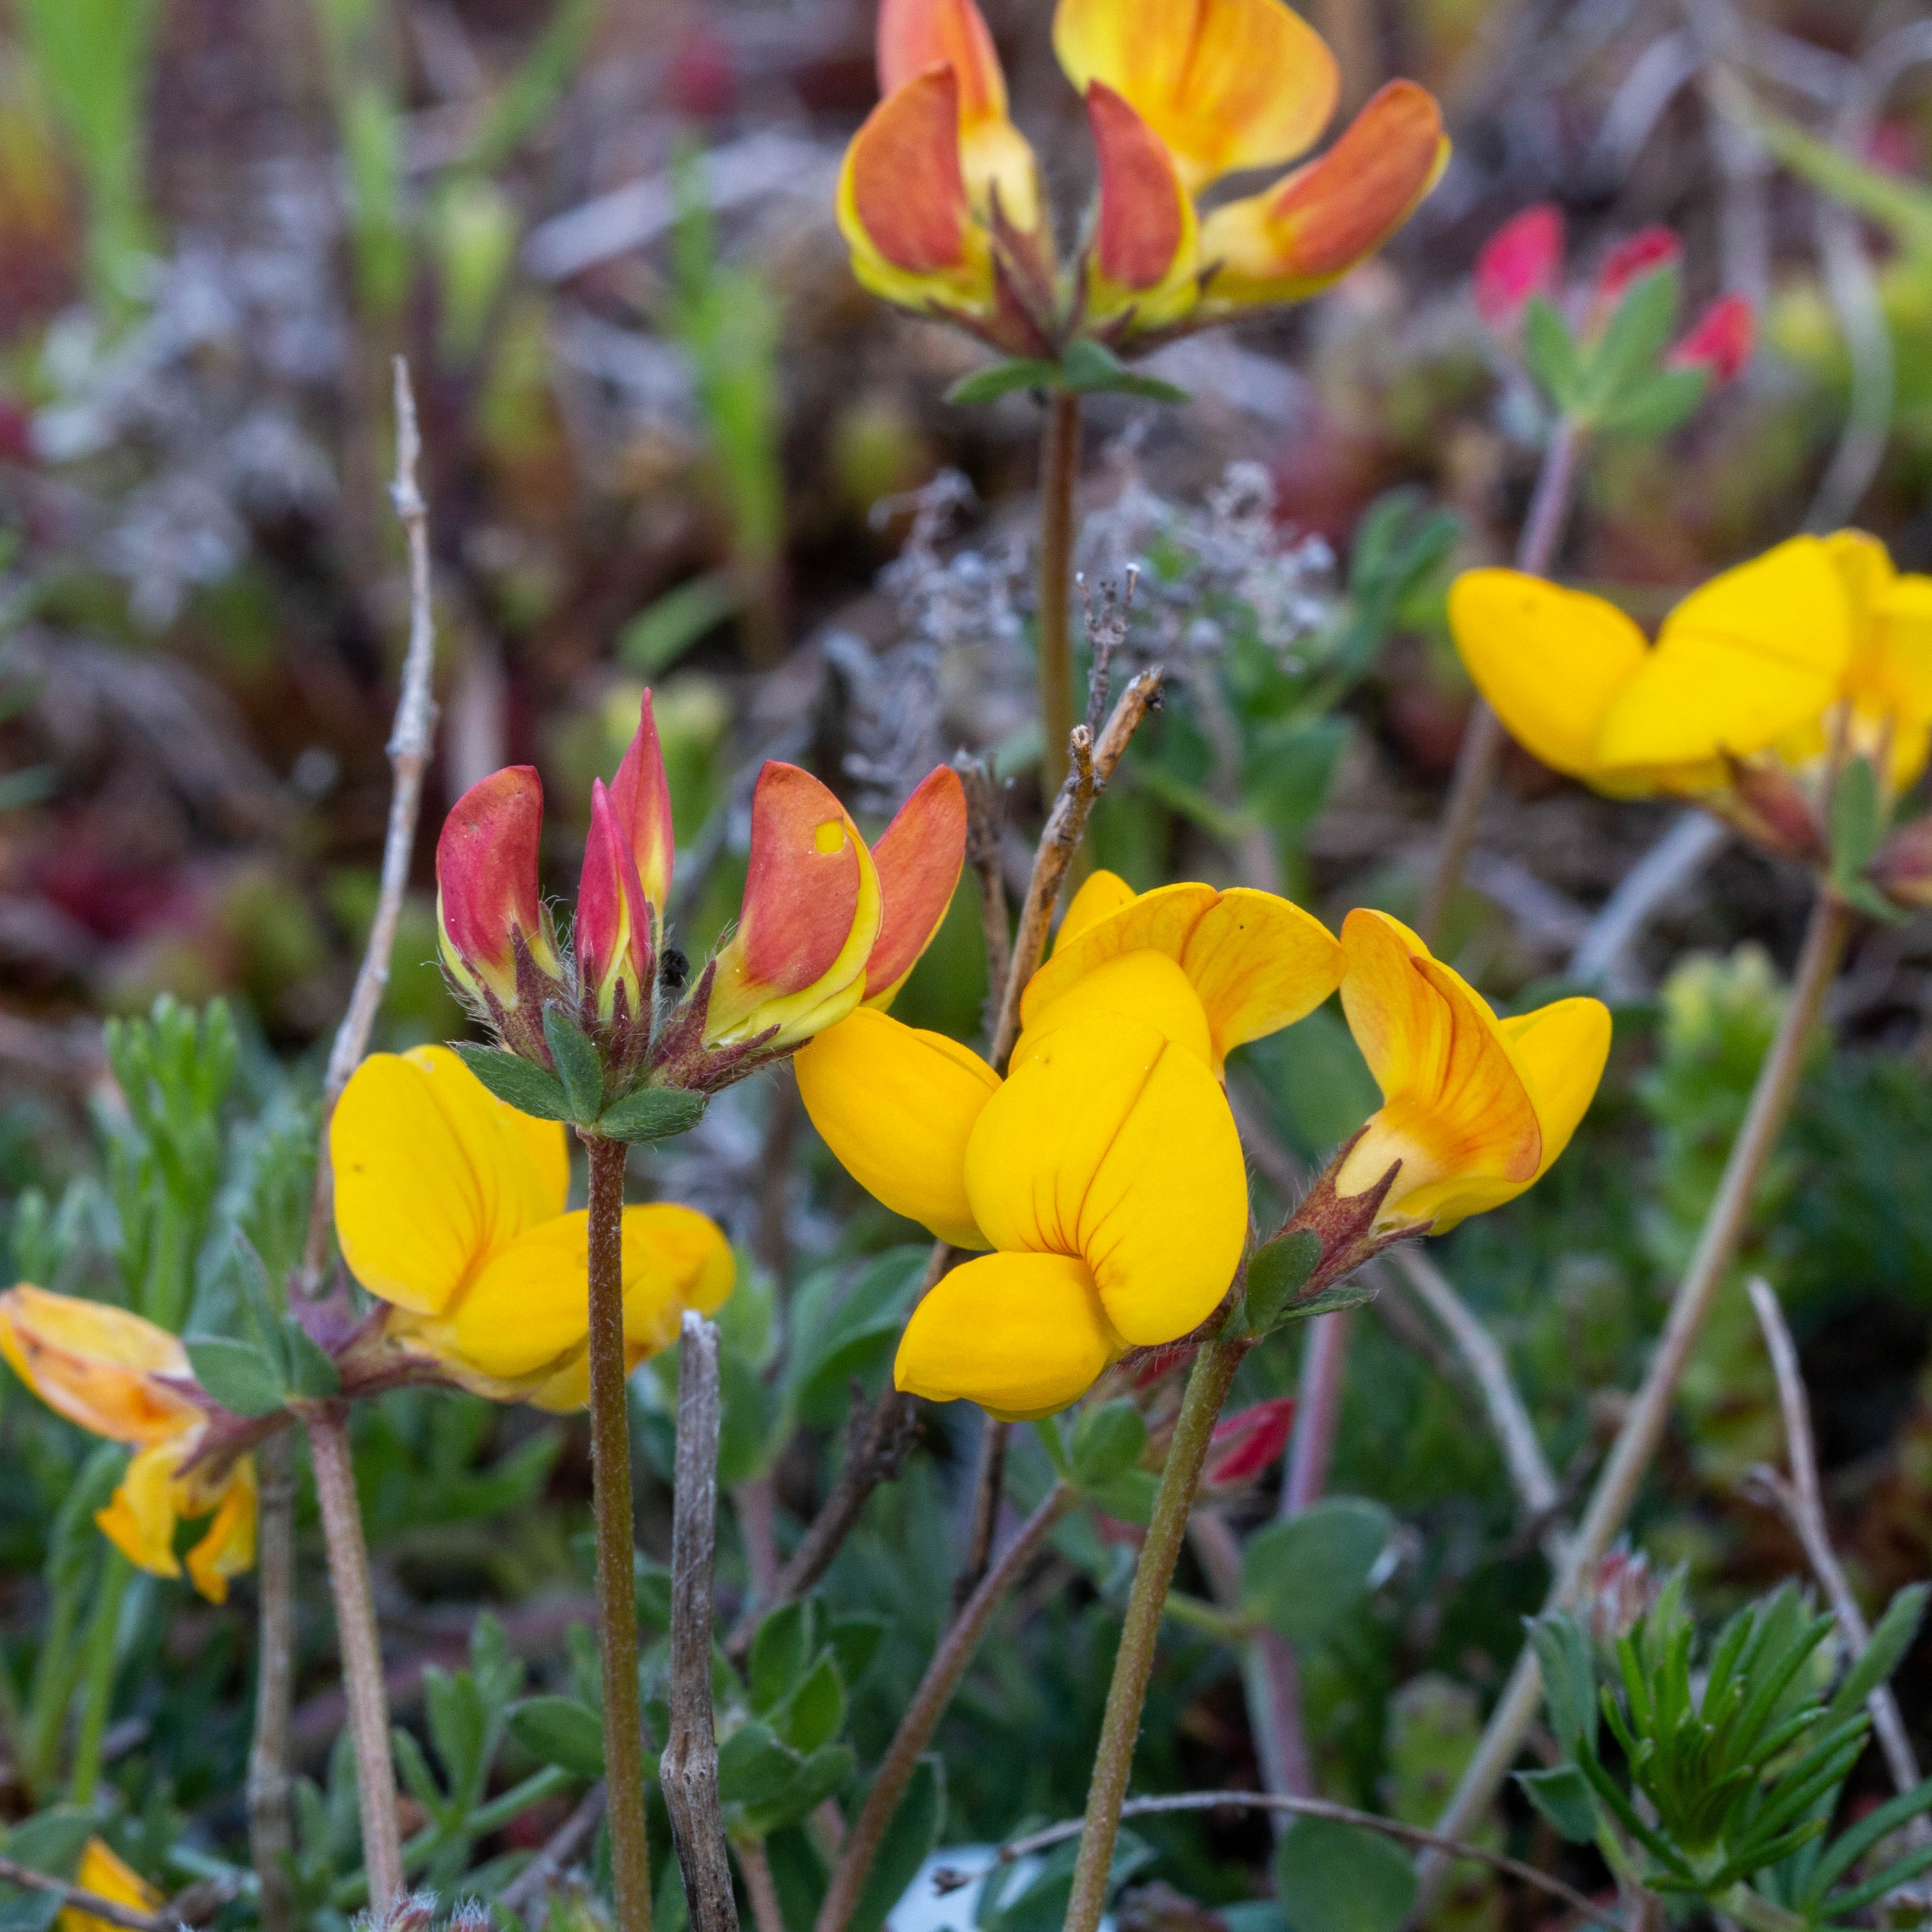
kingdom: Plantae
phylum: Tracheophyta
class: Magnoliopsida
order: Fabales
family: Fabaceae
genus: Lotus
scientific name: Lotus corniculatus
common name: Almindelig kællingetand
